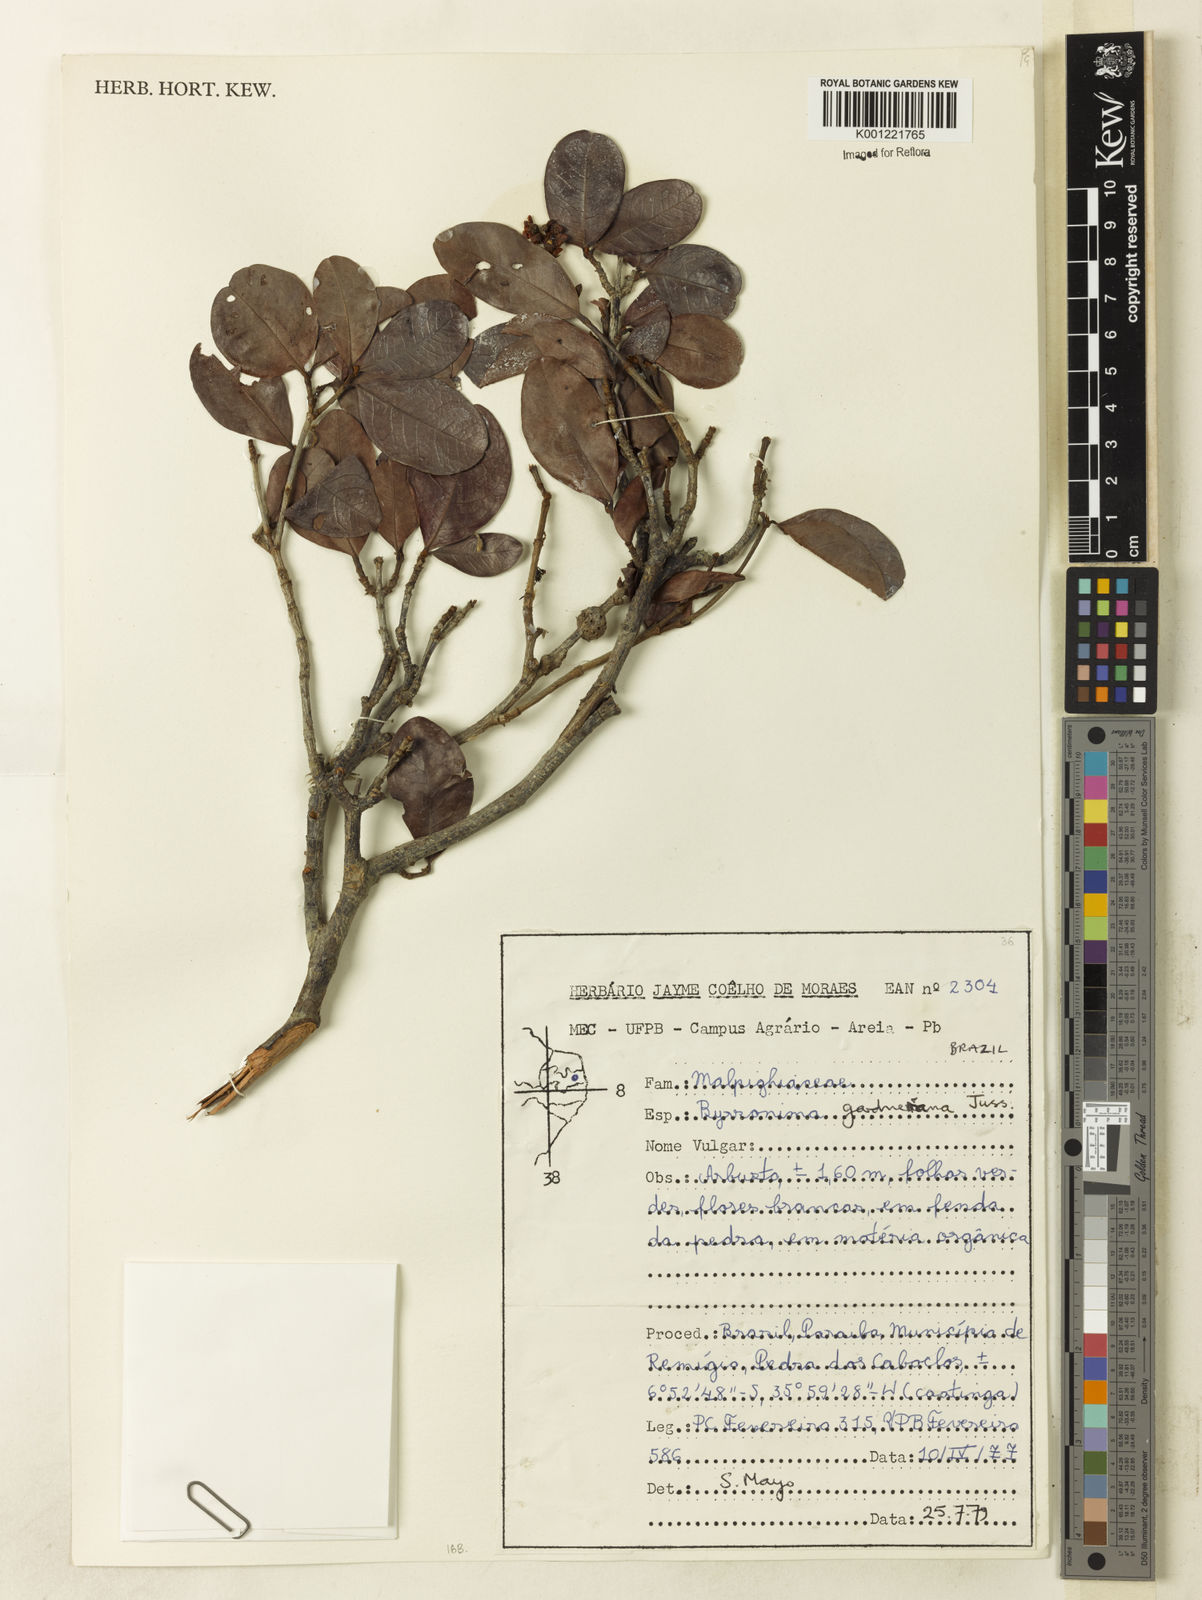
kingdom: Plantae
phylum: Tracheophyta
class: Magnoliopsida
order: Malpighiales
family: Malpighiaceae
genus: Byrsonima
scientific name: Byrsonima gardneriana
